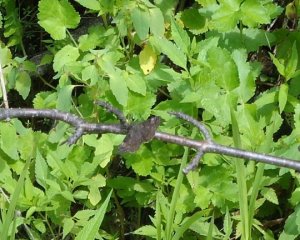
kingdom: Animalia
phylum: Arthropoda
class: Insecta
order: Lepidoptera
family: Hesperiidae
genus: Gesta
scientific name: Gesta
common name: Wild Indigo Duskywing
